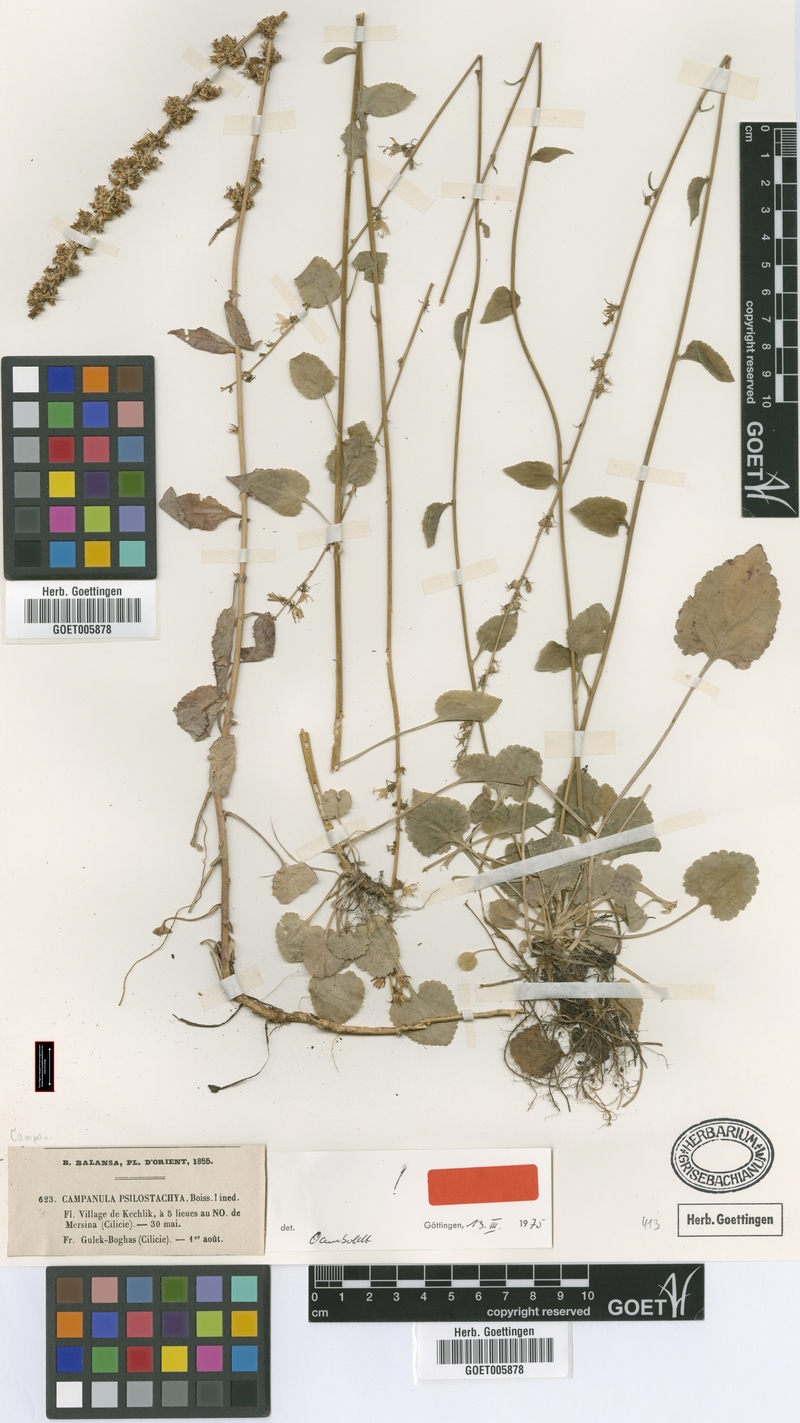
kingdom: Plantae
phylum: Tracheophyta
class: Magnoliopsida
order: Asterales
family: Campanulaceae
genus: Campanula
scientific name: Campanula psilostachya
